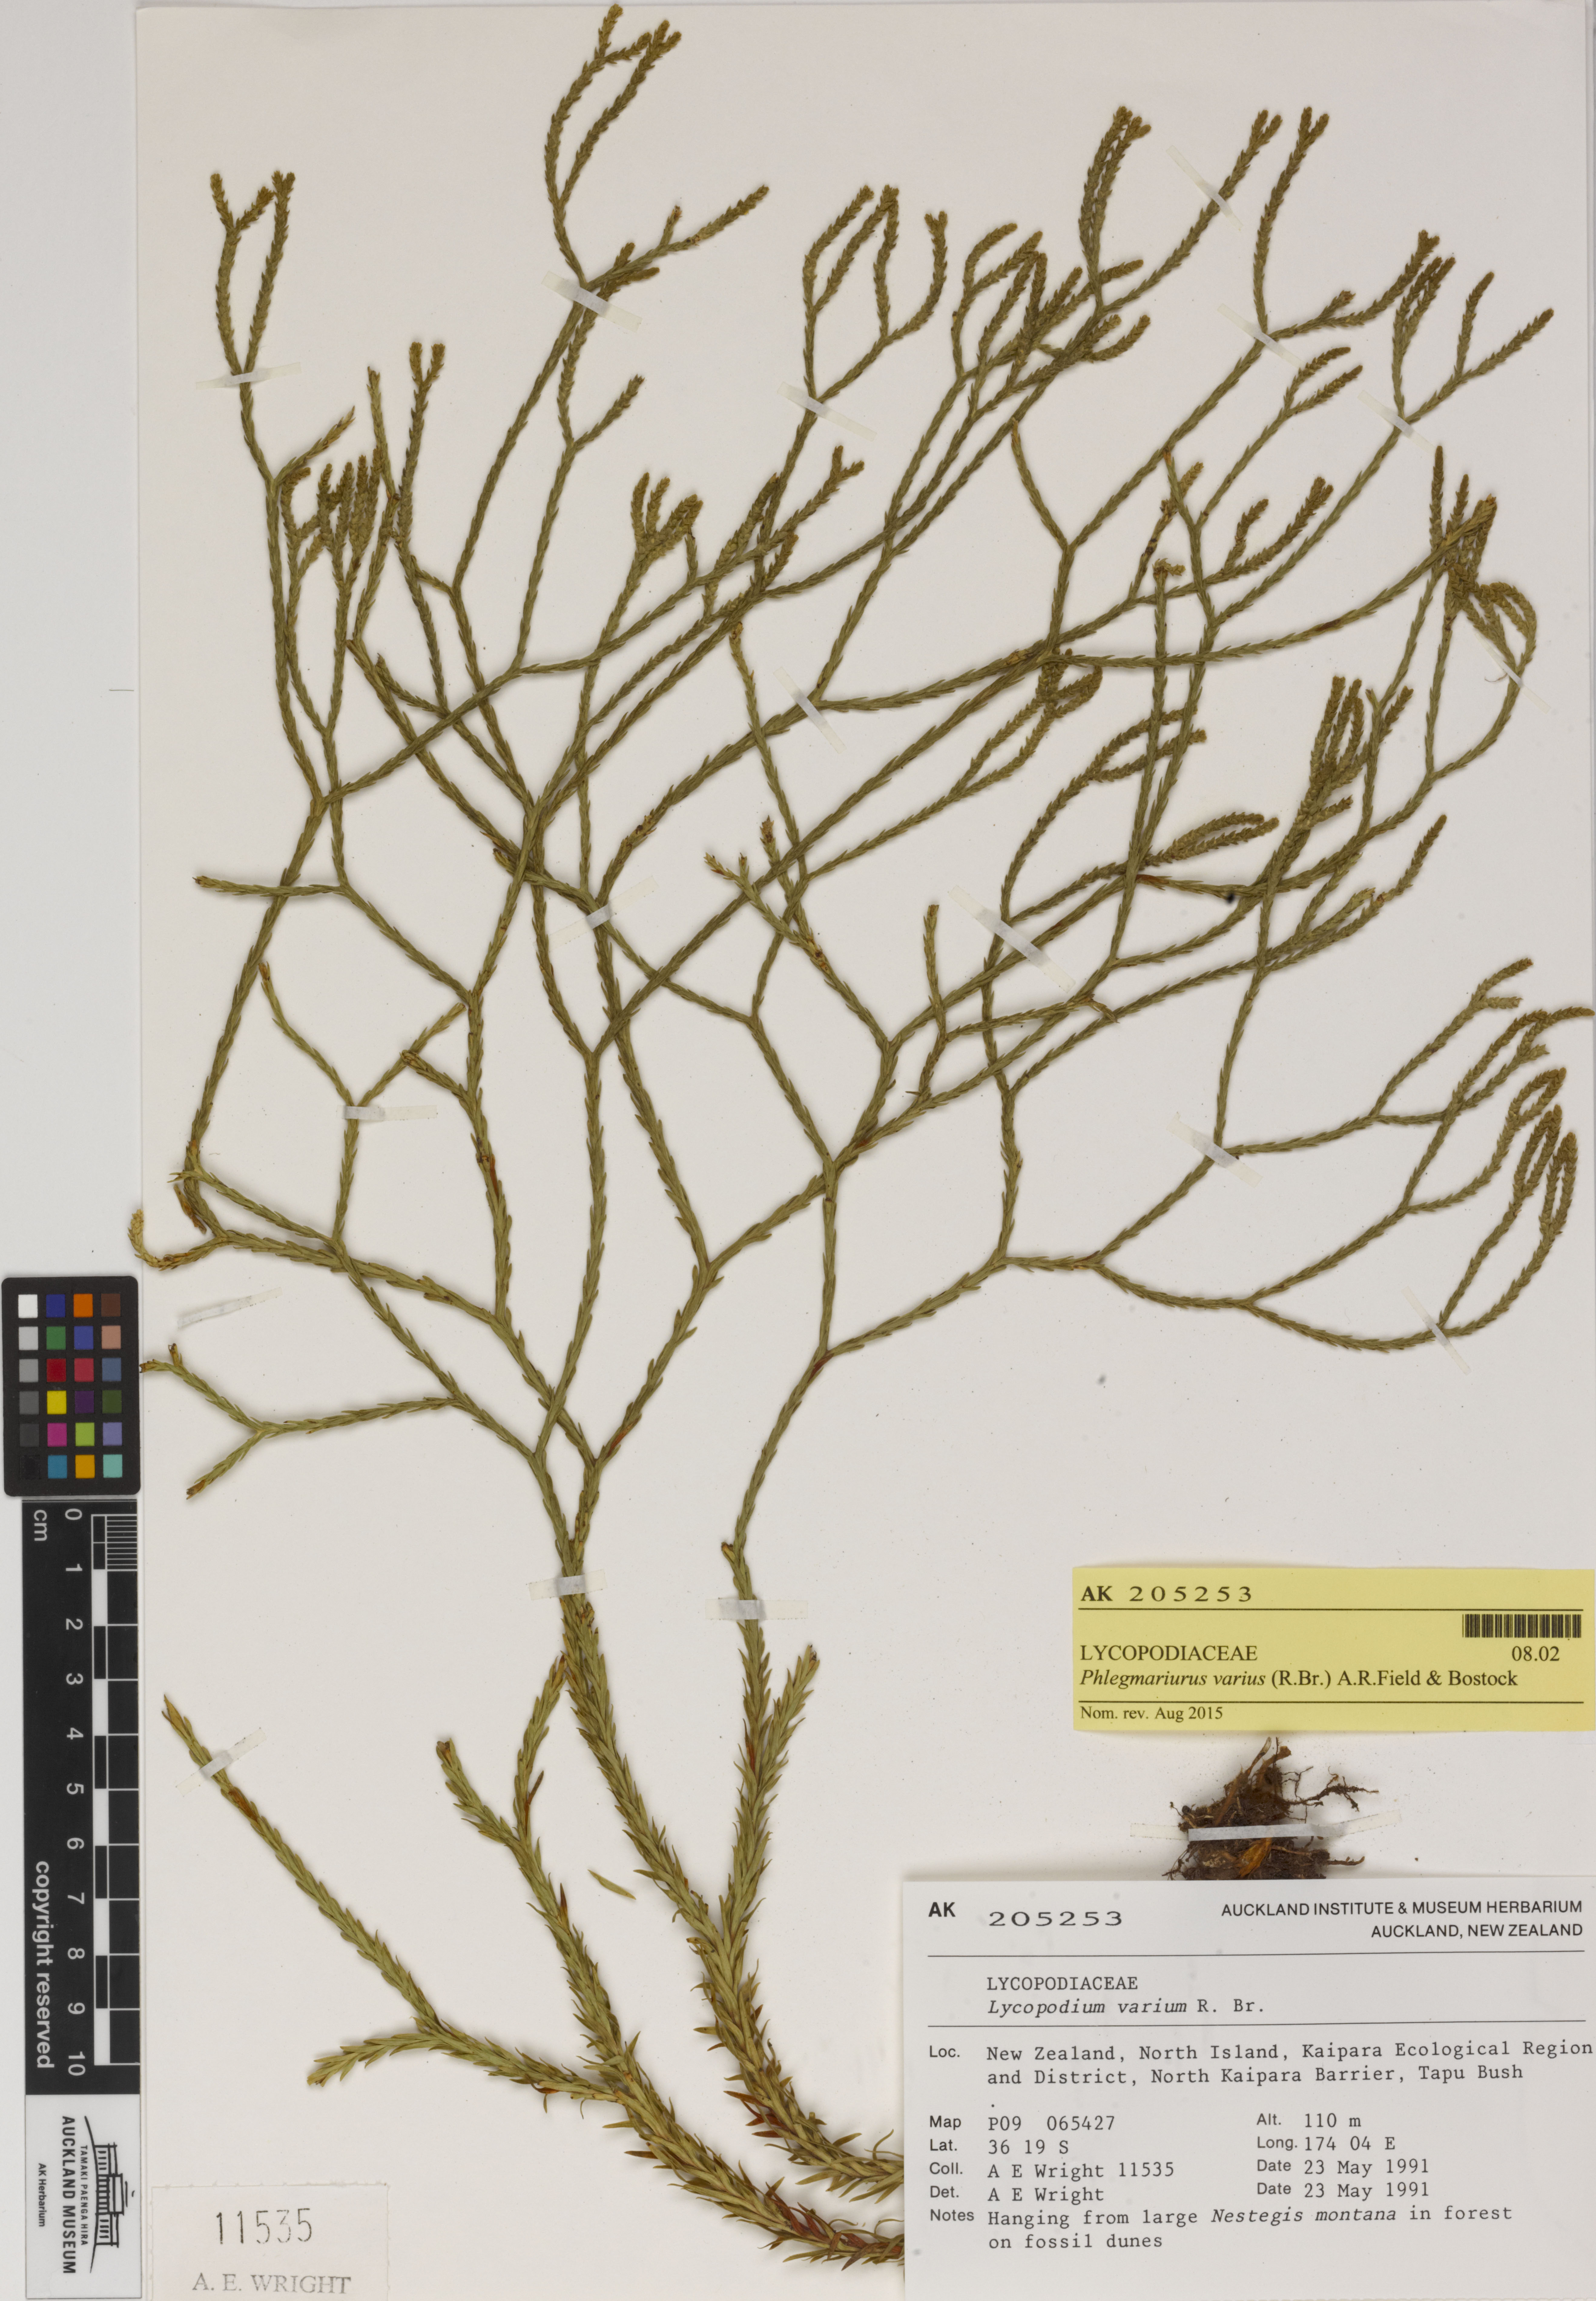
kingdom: Plantae
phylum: Tracheophyta
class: Lycopodiopsida
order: Lycopodiales
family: Lycopodiaceae
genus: Phlegmariurus
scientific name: Phlegmariurus billardierei
